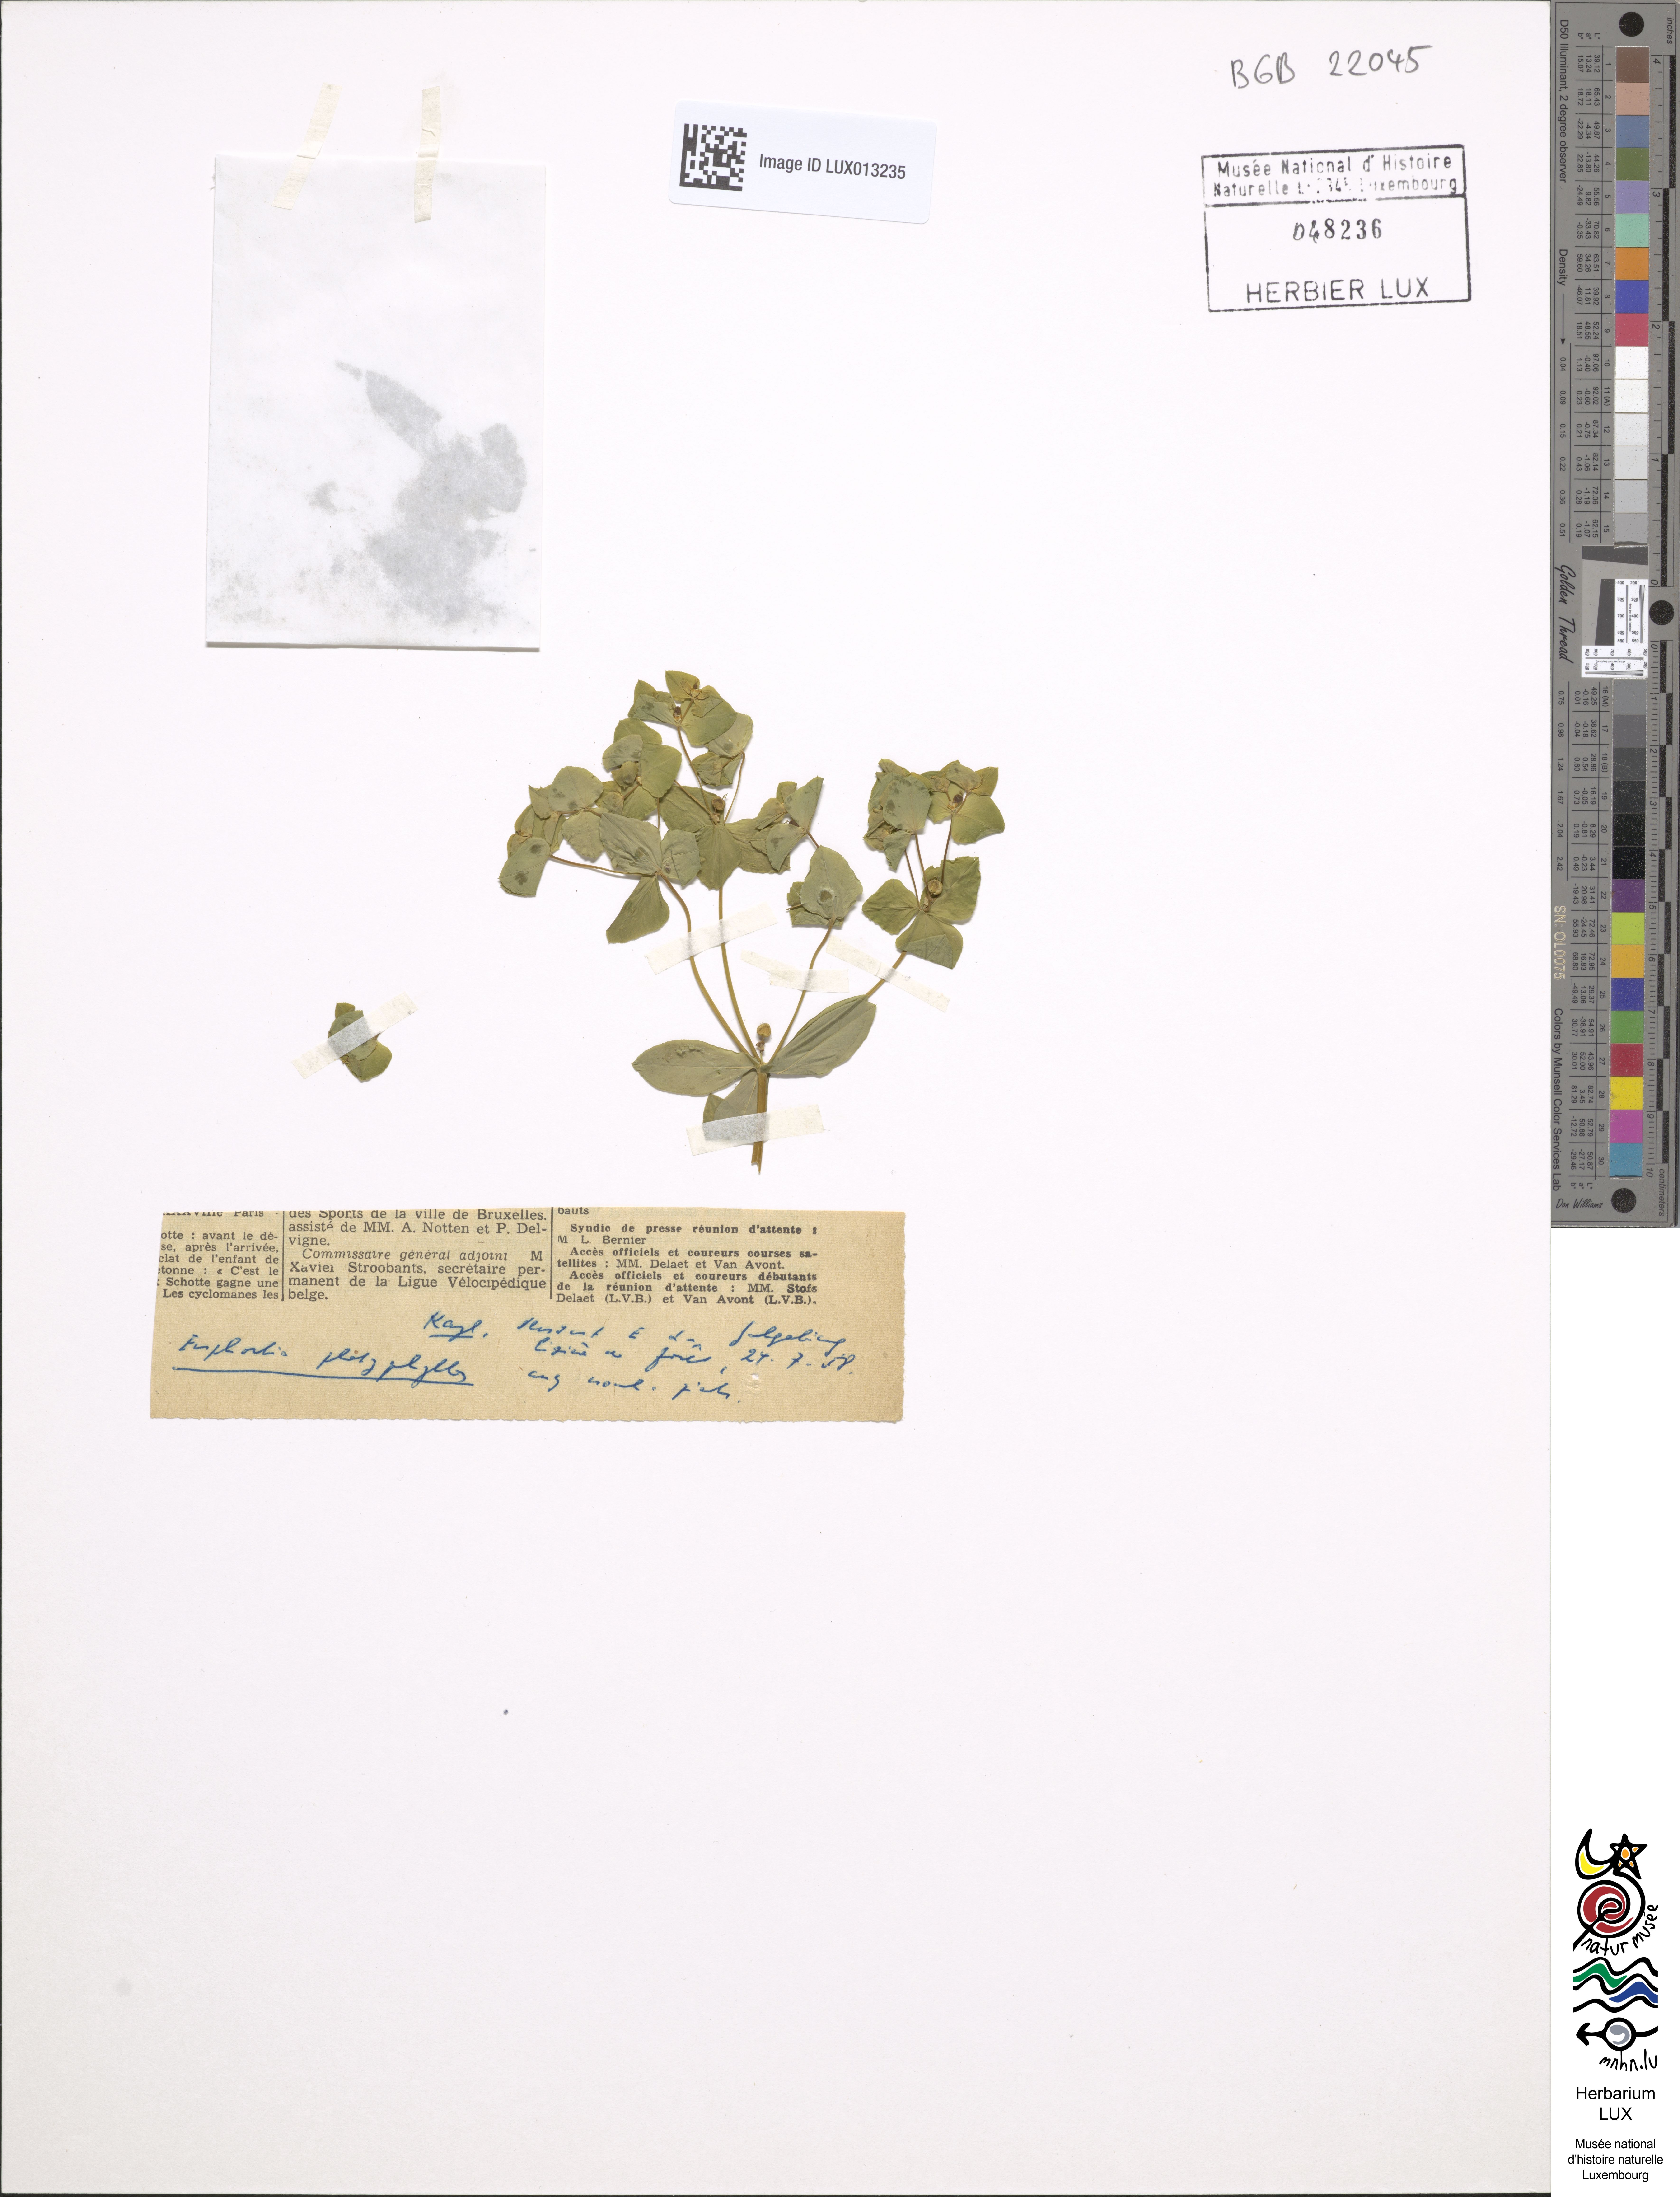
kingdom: Plantae
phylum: Tracheophyta
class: Magnoliopsida
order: Malpighiales
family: Euphorbiaceae
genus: Euphorbia
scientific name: Euphorbia platyphyllos
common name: Broad-leaved spurge
